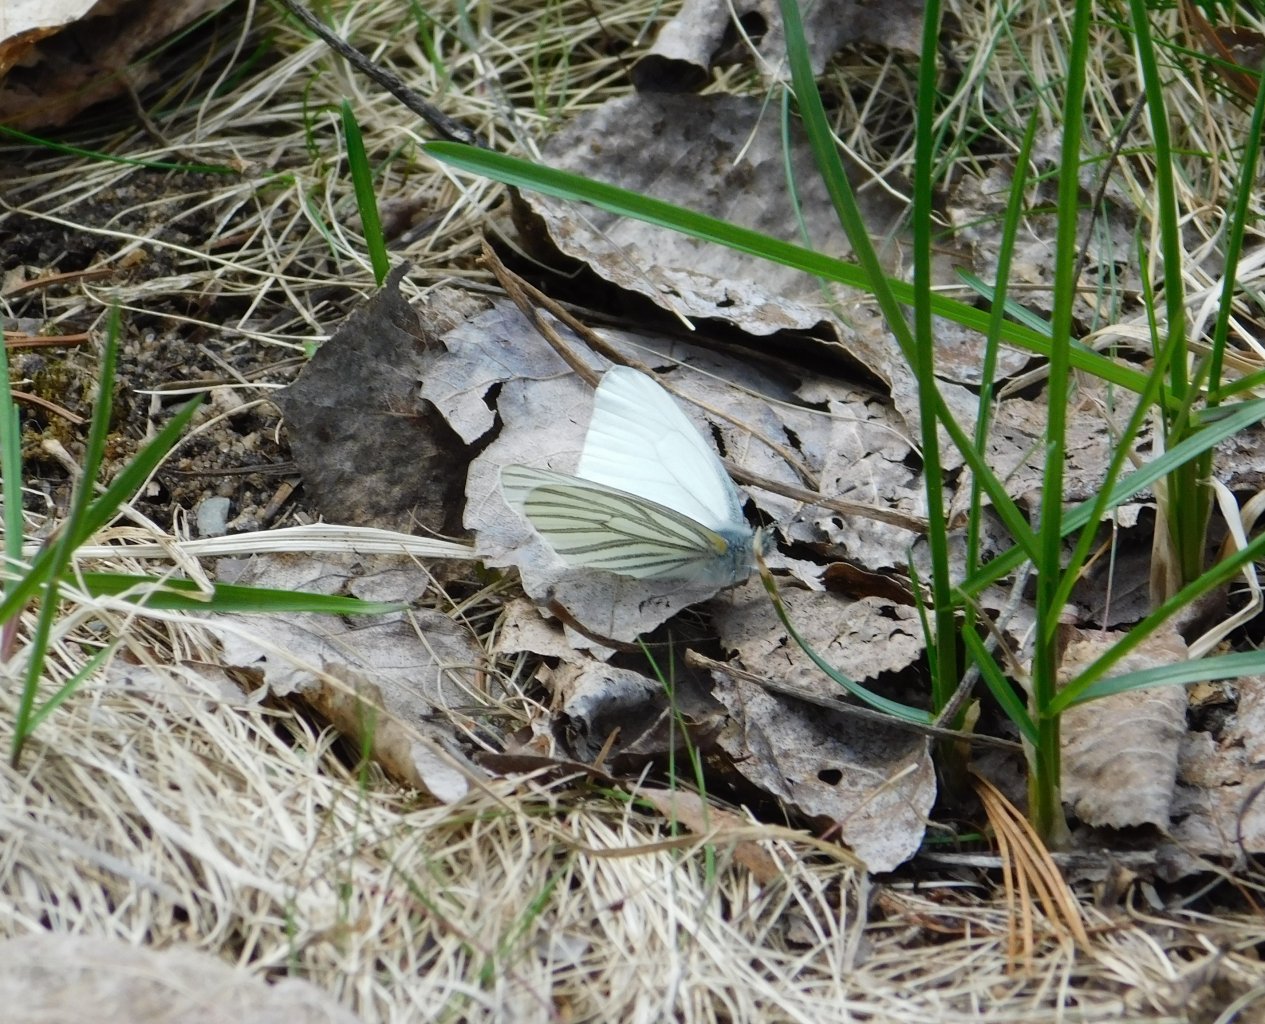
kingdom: Animalia
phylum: Arthropoda
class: Insecta
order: Lepidoptera
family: Pieridae
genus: Pieris
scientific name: Pieris oleracea
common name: Mustard White
